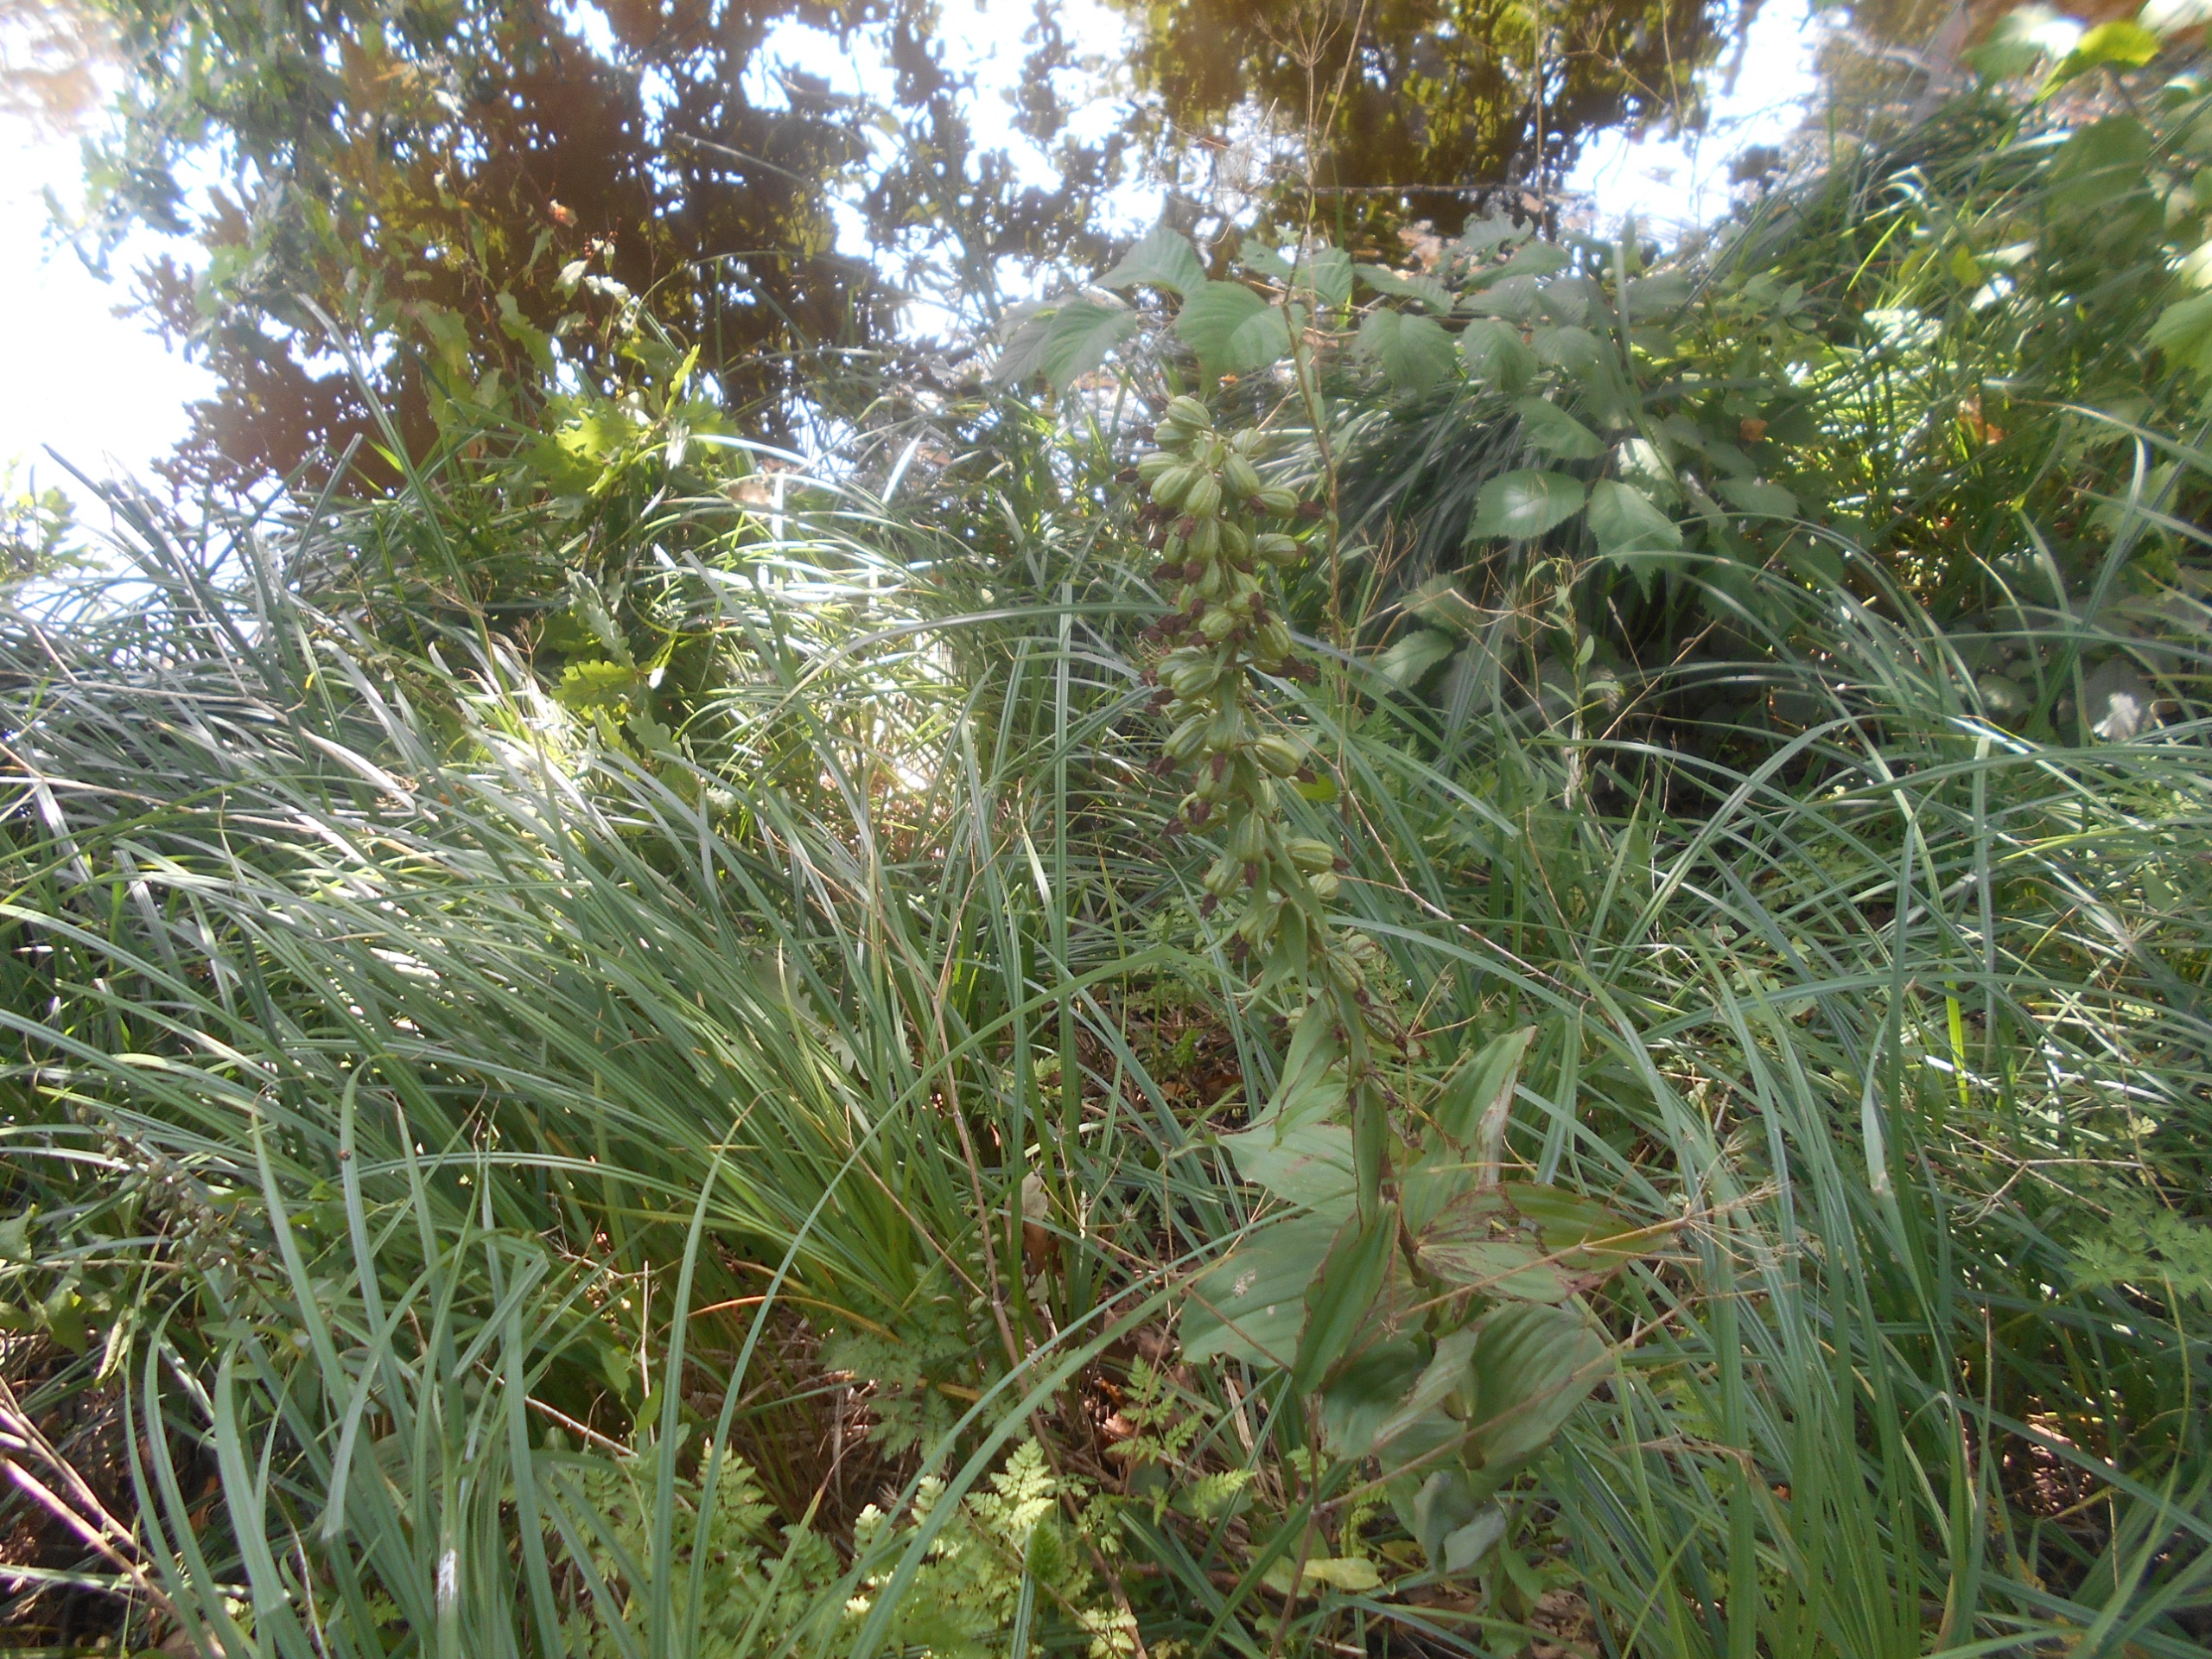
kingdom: Plantae
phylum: Tracheophyta
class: Liliopsida
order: Asparagales
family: Orchidaceae
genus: Epipactis
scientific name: Epipactis helleborine
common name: Skov-hullæbe
